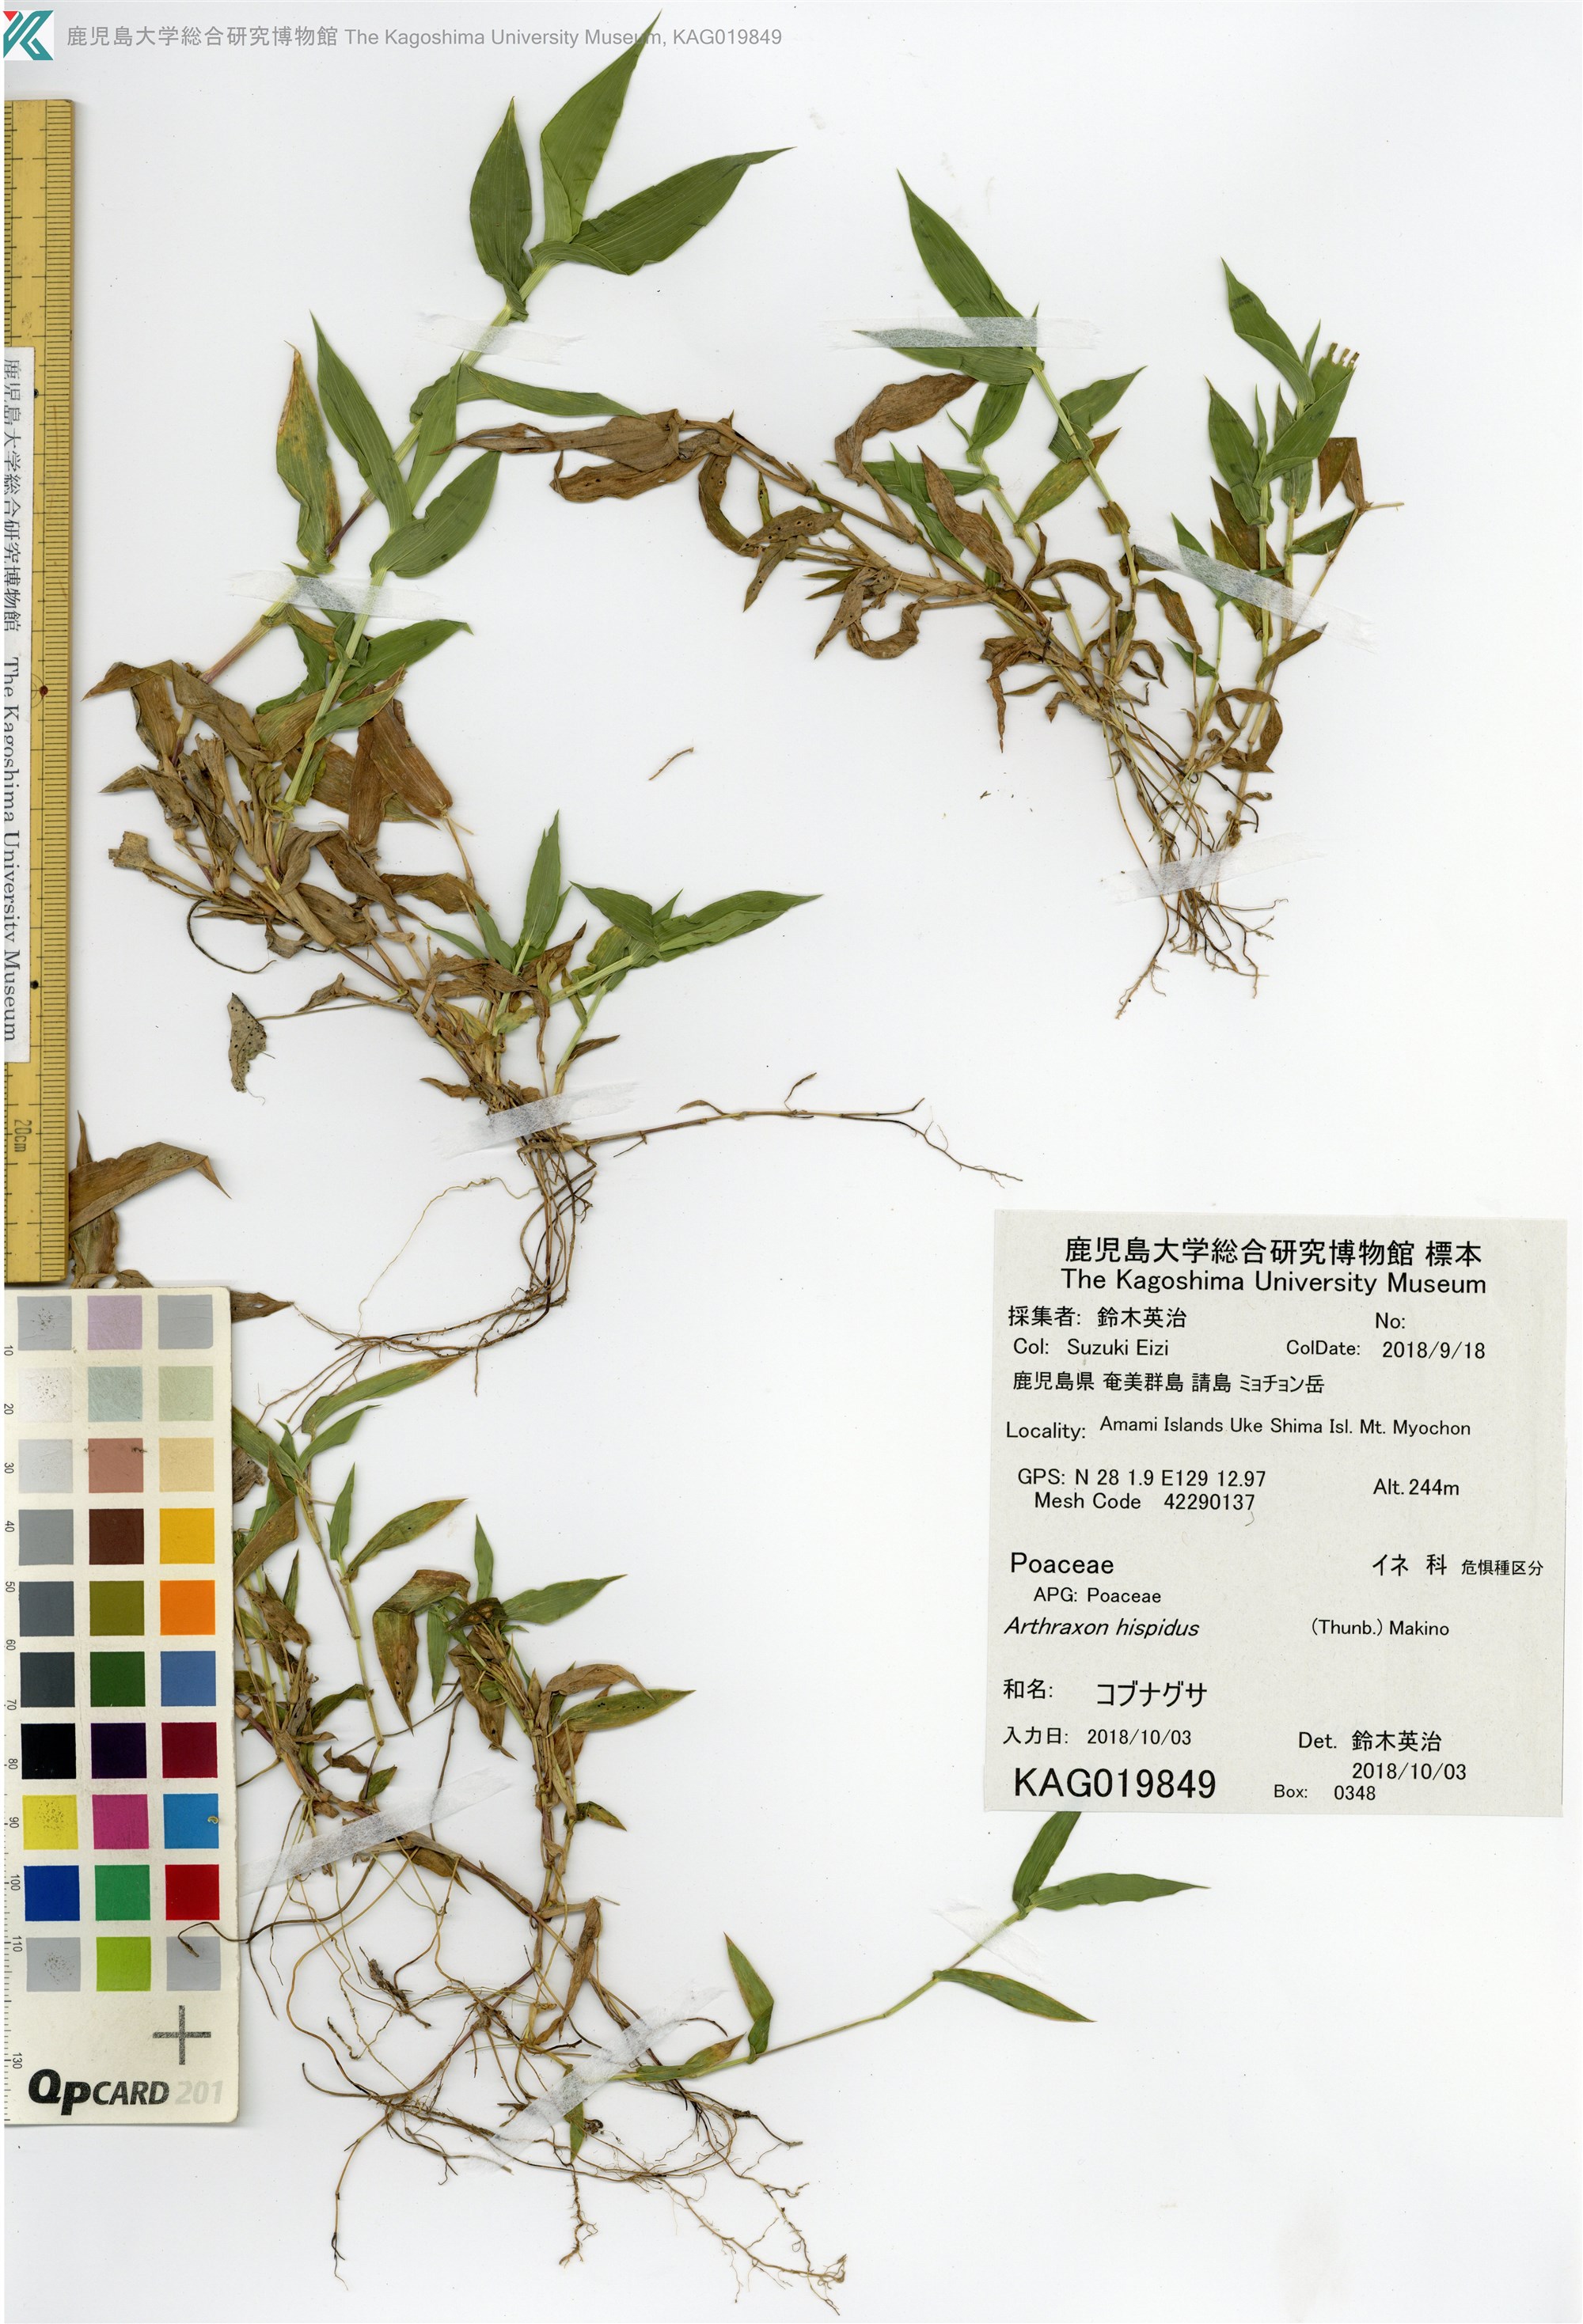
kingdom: Plantae
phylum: Tracheophyta
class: Liliopsida
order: Poales
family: Poaceae
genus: Arthraxon
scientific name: Arthraxon hispidus
